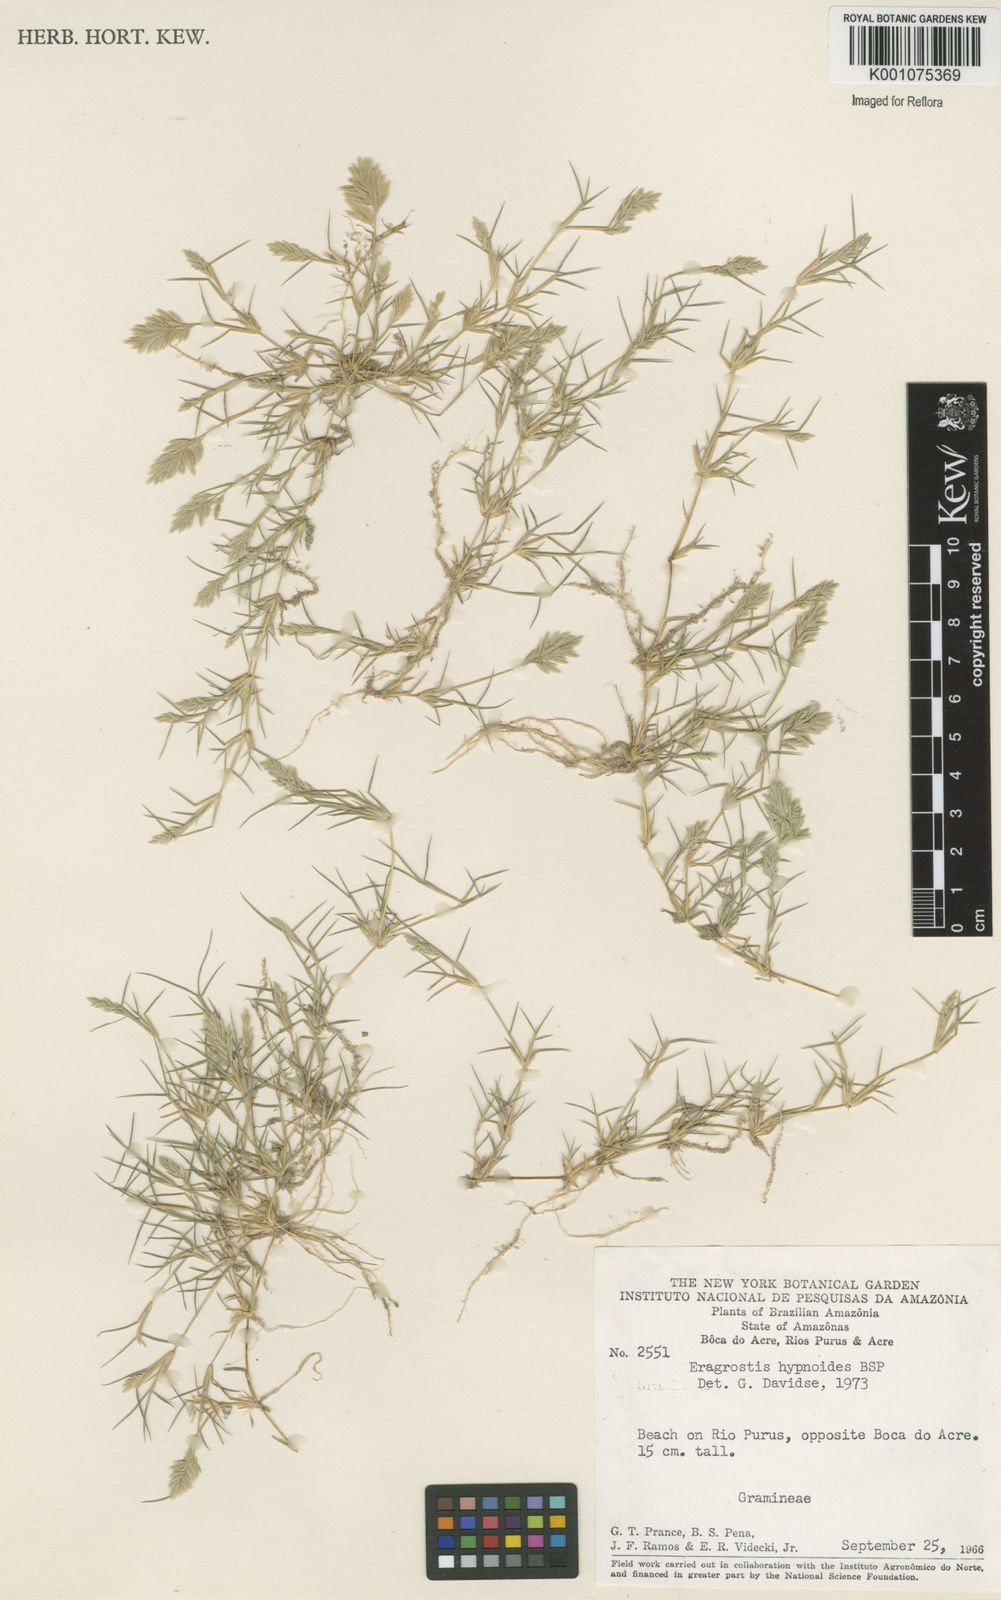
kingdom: Plantae
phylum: Tracheophyta
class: Liliopsida
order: Poales
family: Poaceae
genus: Eragrostis
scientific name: Eragrostis
